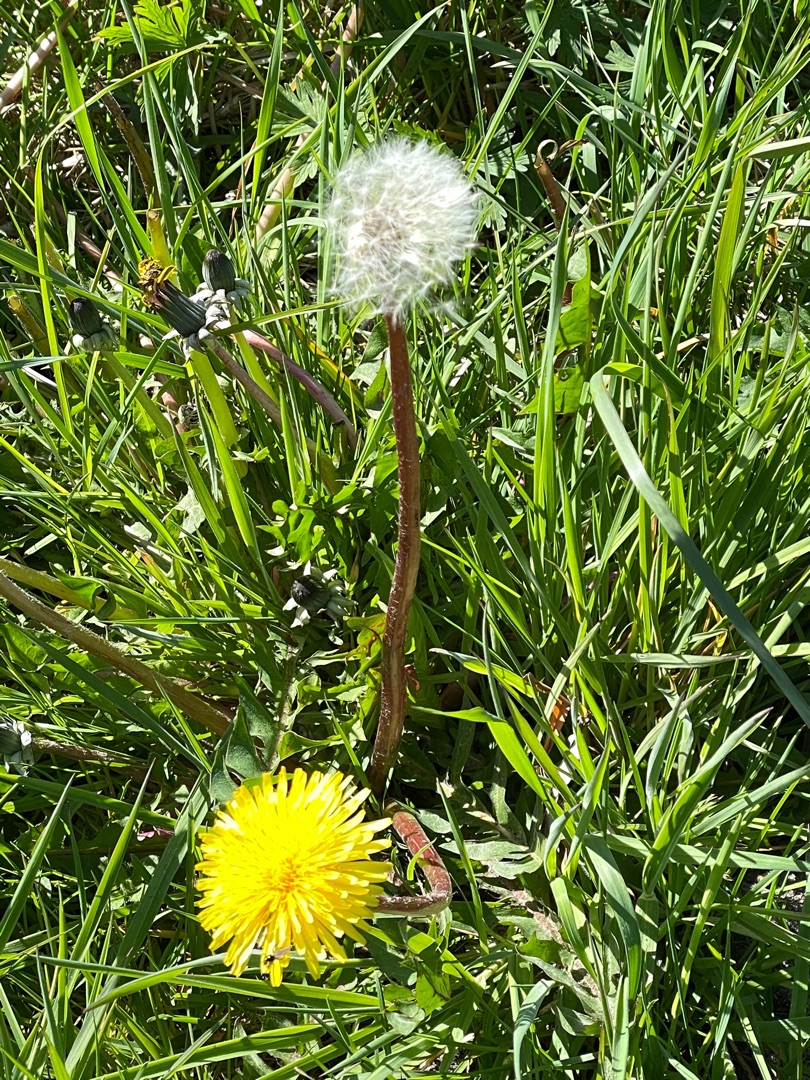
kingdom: Plantae
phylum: Tracheophyta
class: Magnoliopsida
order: Asterales
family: Asteraceae
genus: Taraxacum
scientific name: Taraxacum
